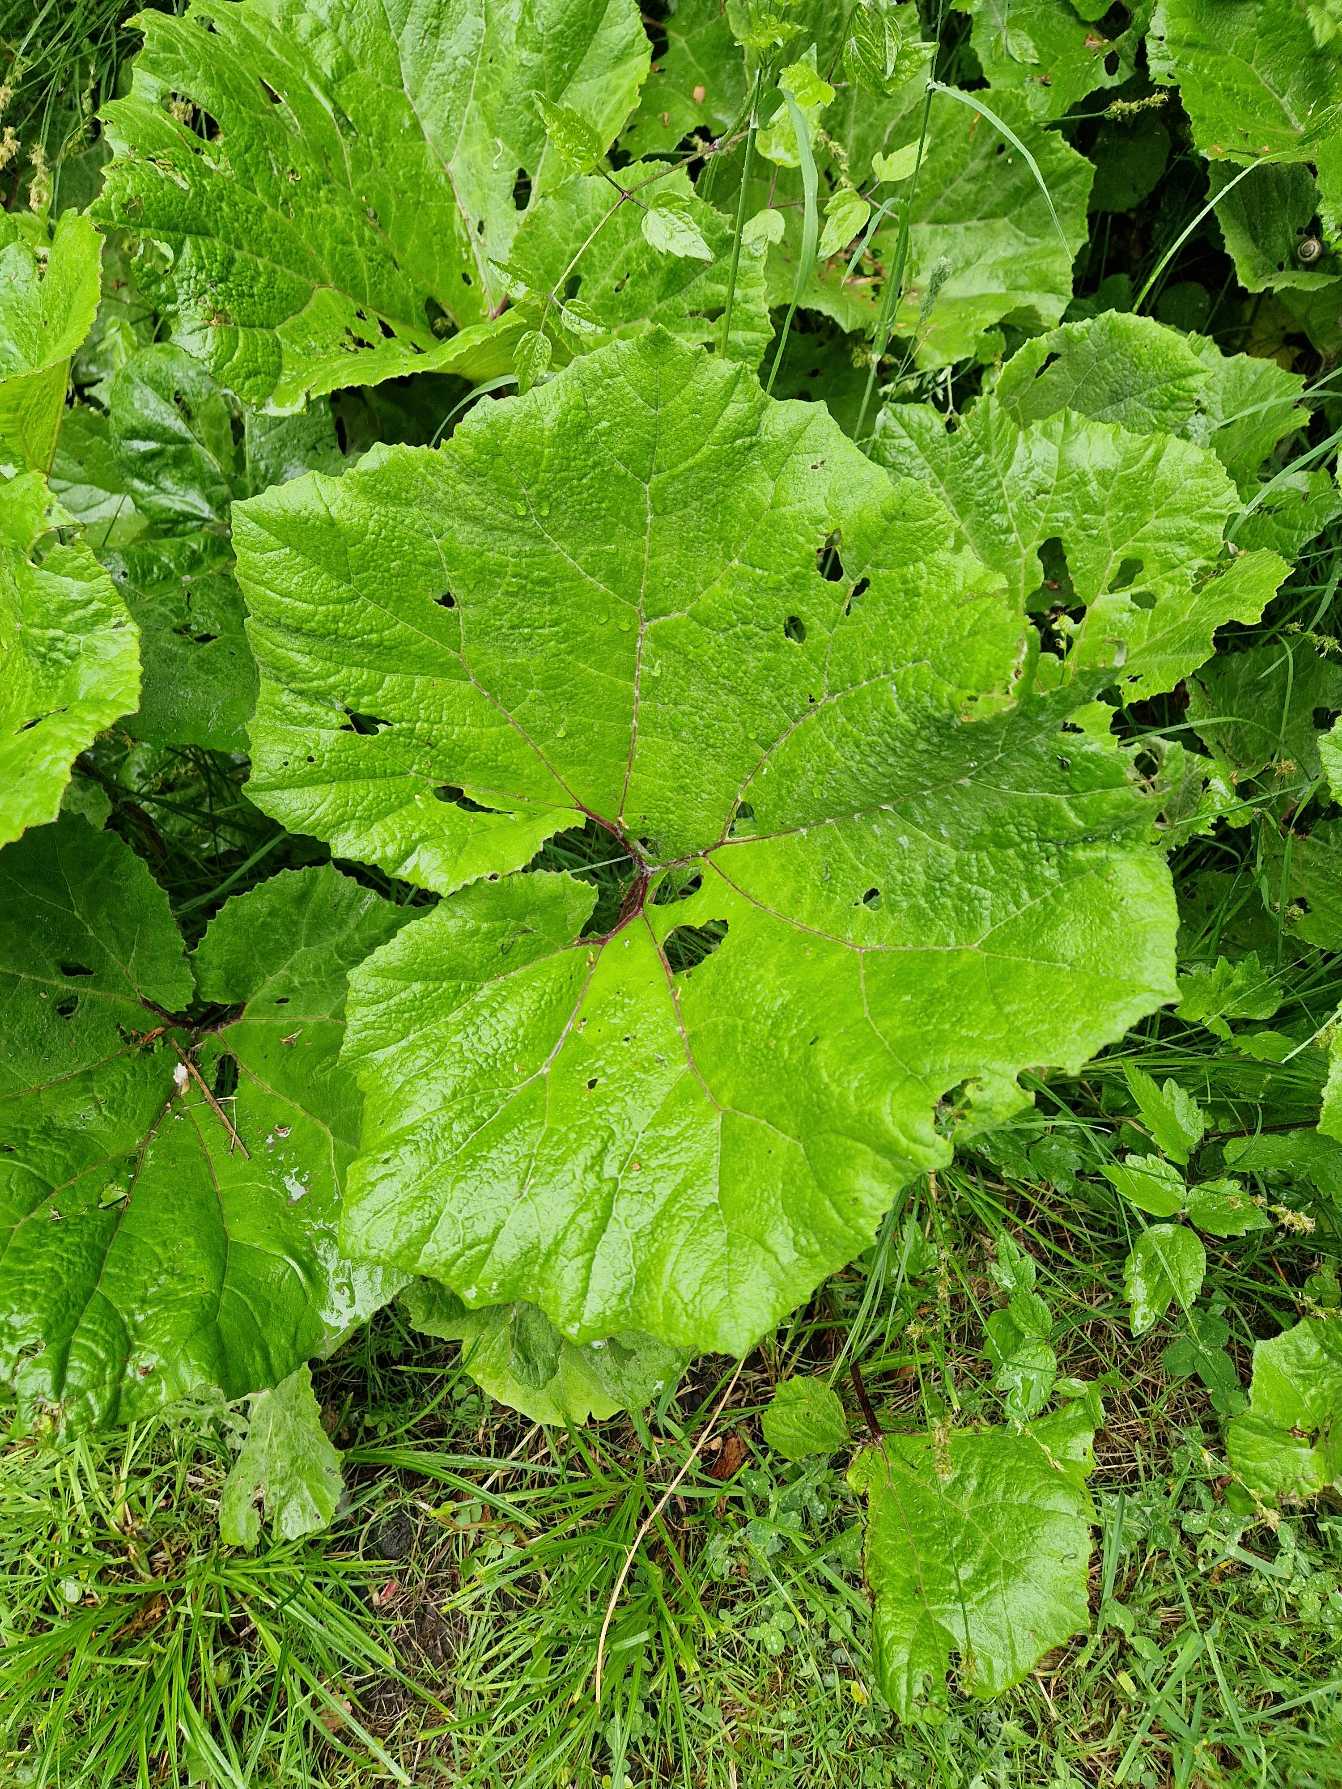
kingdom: Plantae
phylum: Tracheophyta
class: Magnoliopsida
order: Asterales
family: Asteraceae
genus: Petasites
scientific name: Petasites hybridus
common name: Rød hestehov
